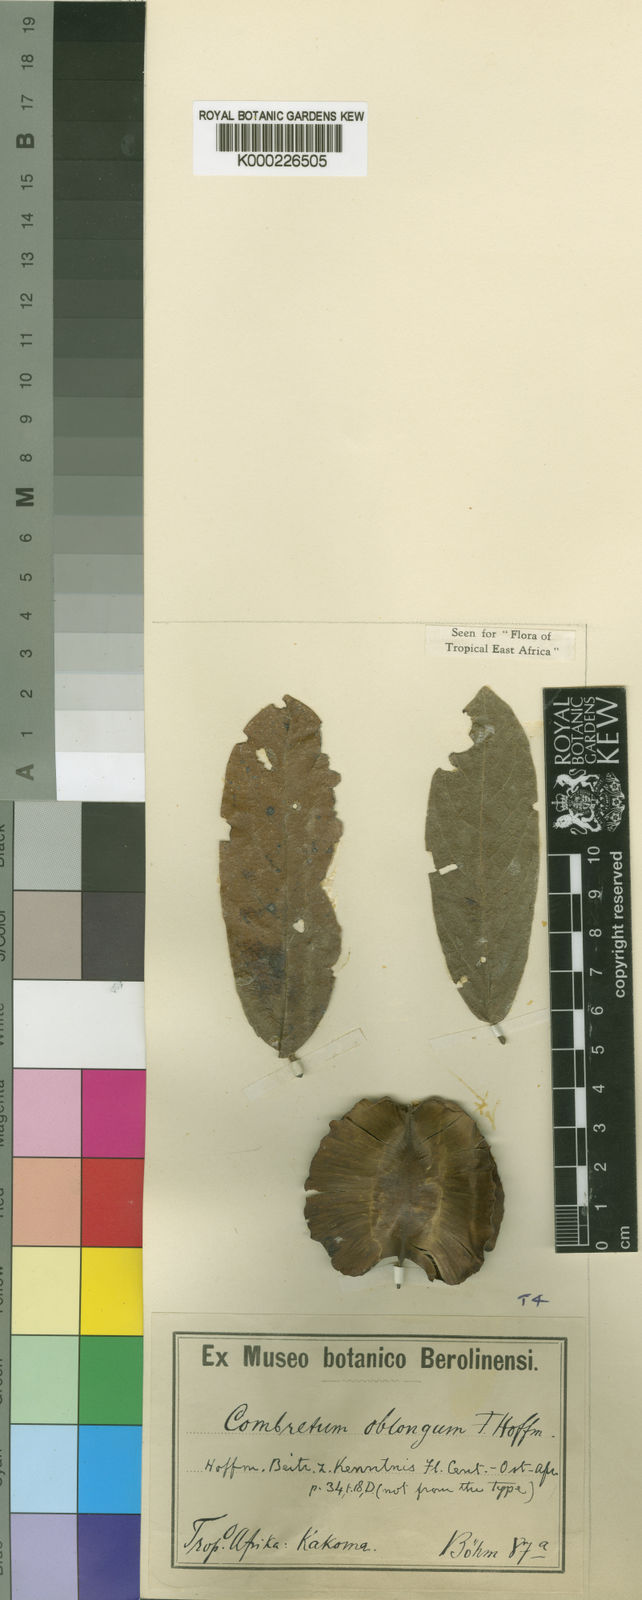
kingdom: Plantae
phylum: Tracheophyta
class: Magnoliopsida
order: Myrtales
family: Combretaceae
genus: Combretum
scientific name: Combretum zeyheri
